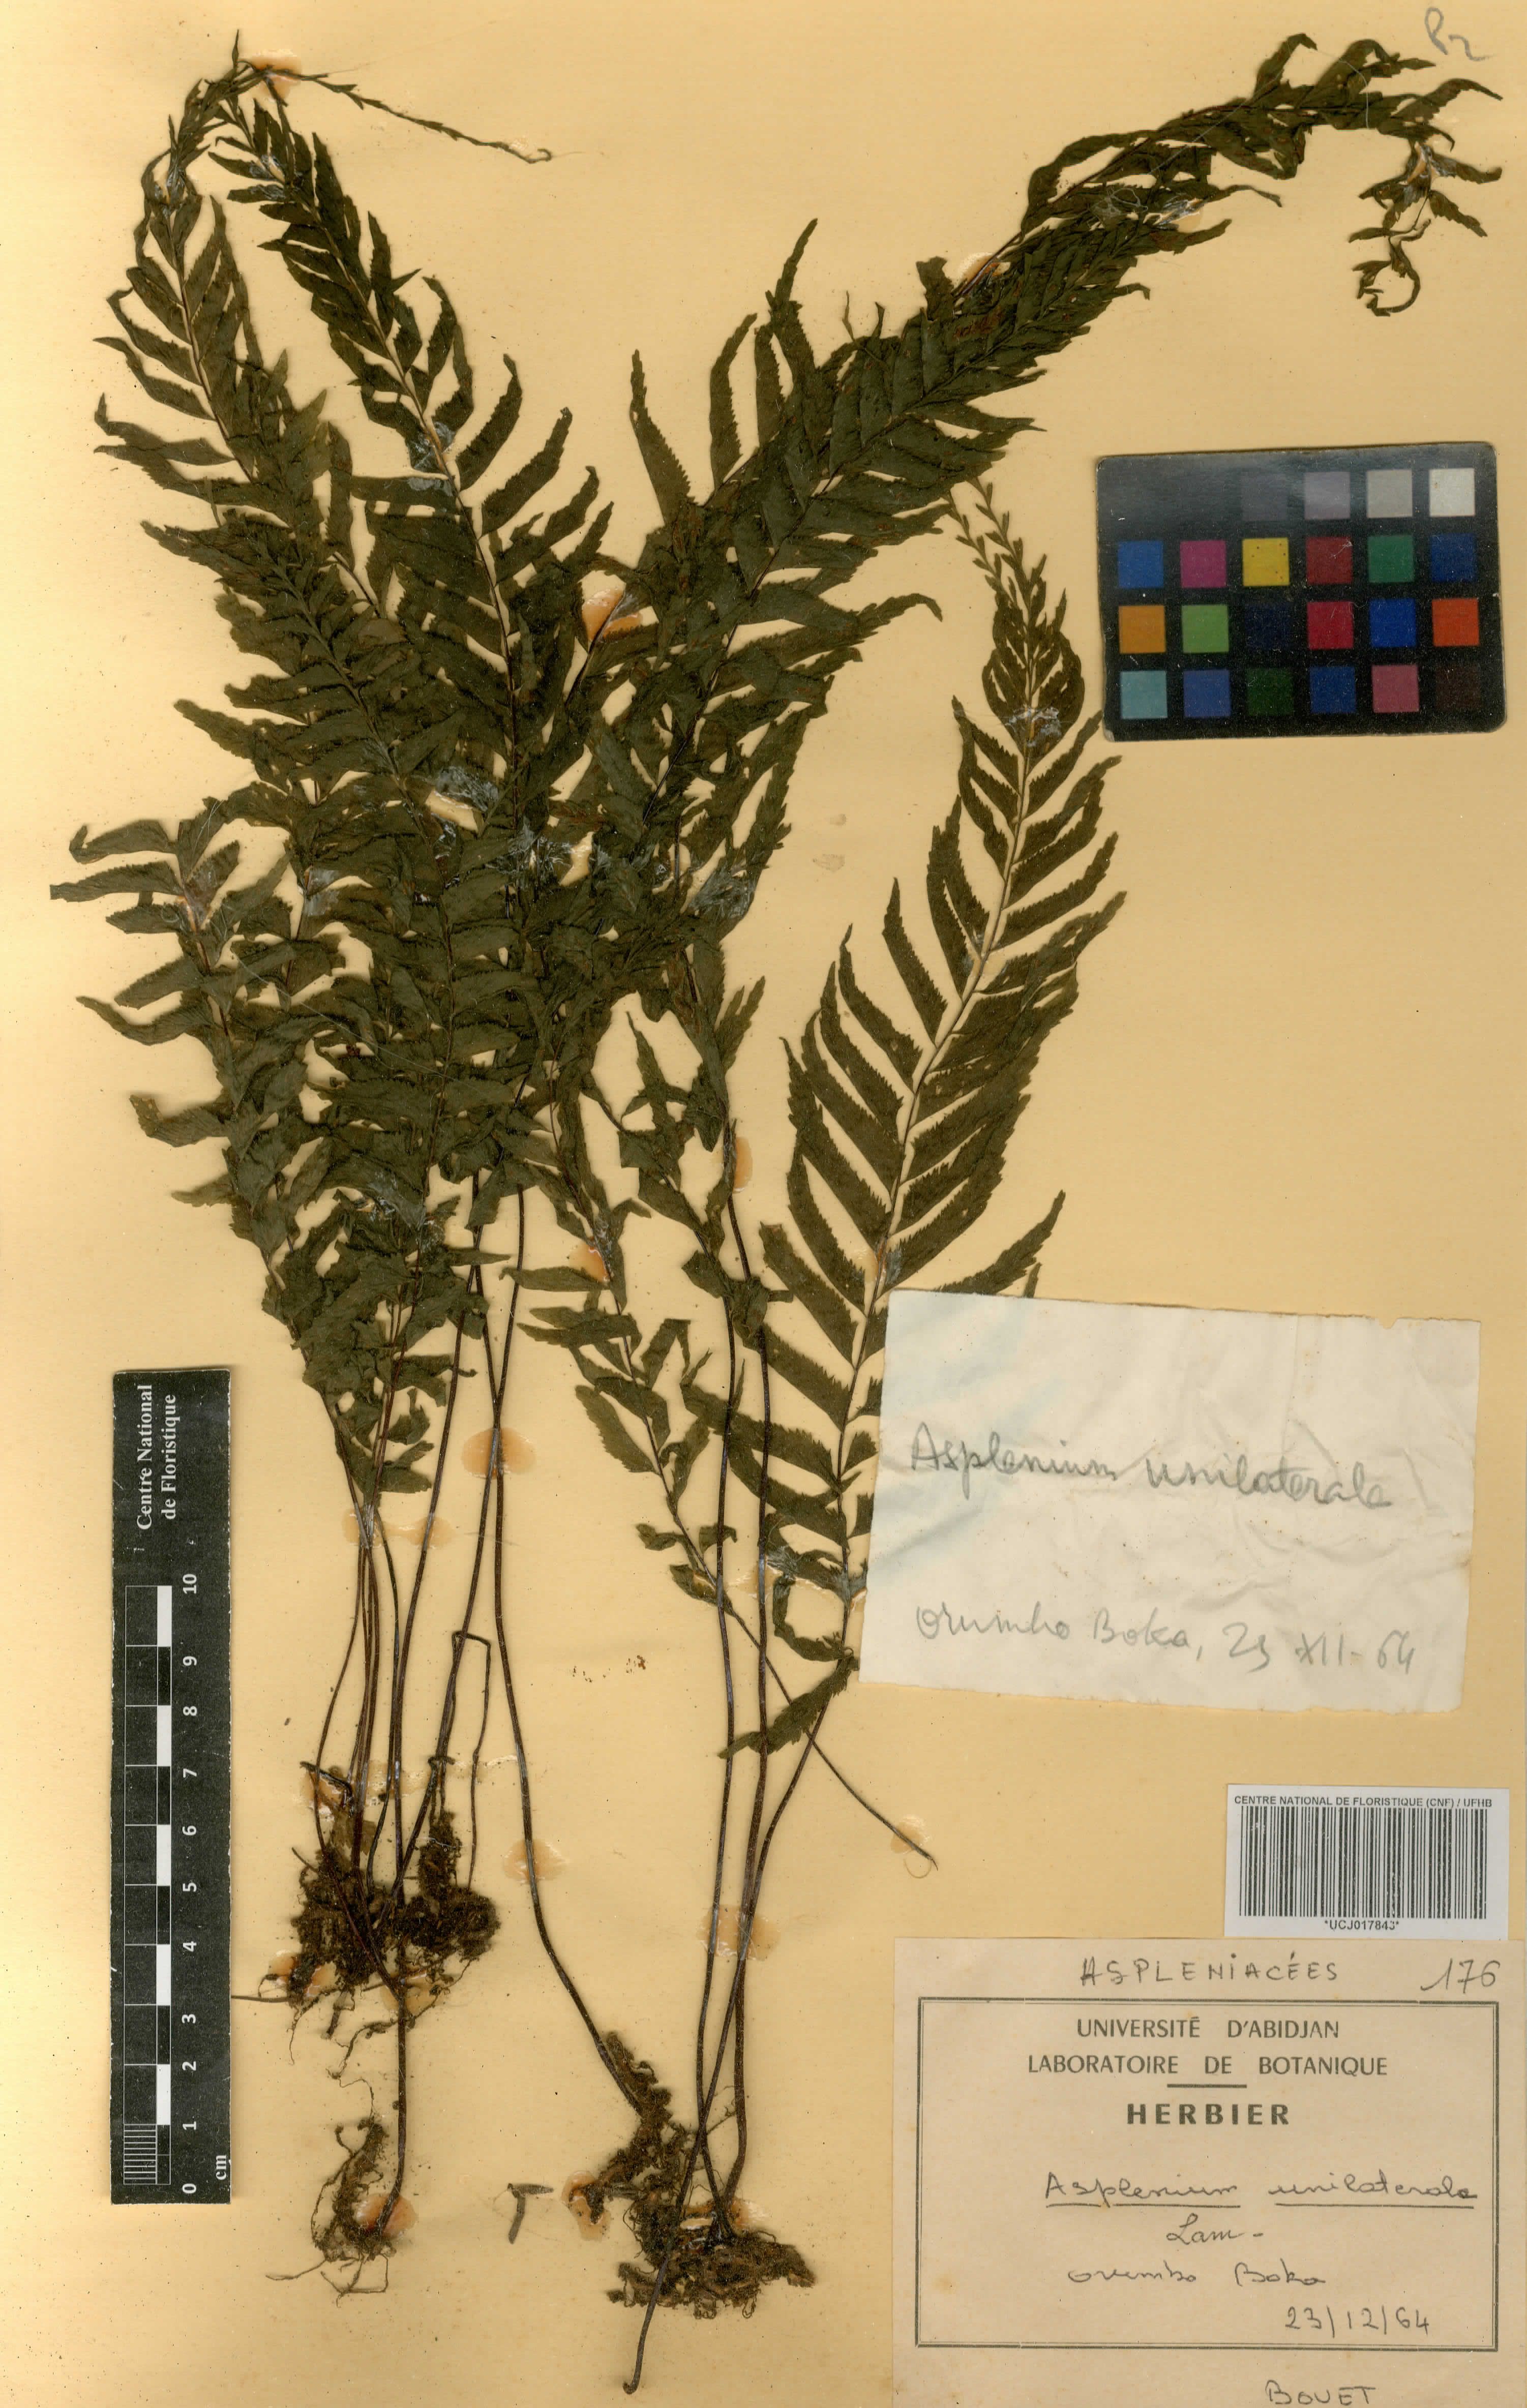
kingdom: Plantae
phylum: Tracheophyta
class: Polypodiopsida
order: Polypodiales
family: Aspleniaceae
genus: Hymenasplenium
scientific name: Hymenasplenium unilaterale
